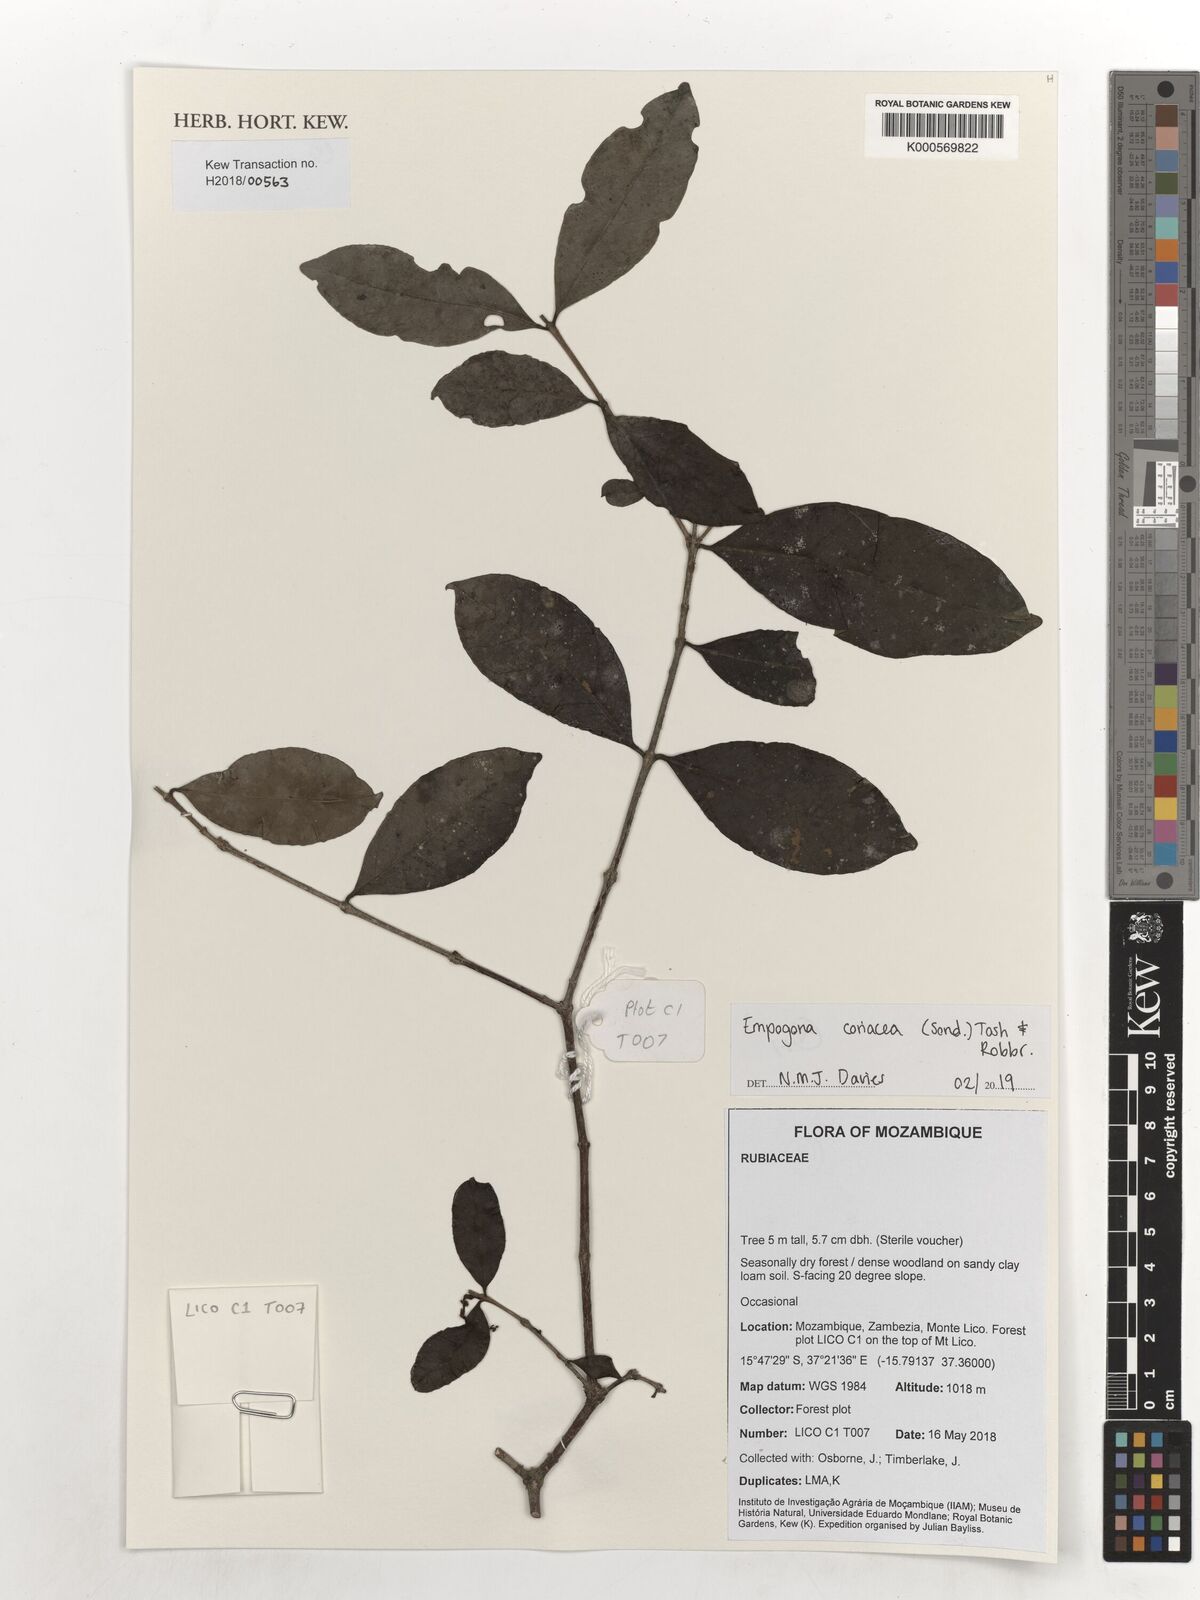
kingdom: Plantae
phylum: Tracheophyta
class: Magnoliopsida
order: Gentianales
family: Rubiaceae
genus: Empogona
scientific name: Empogona coriacea
